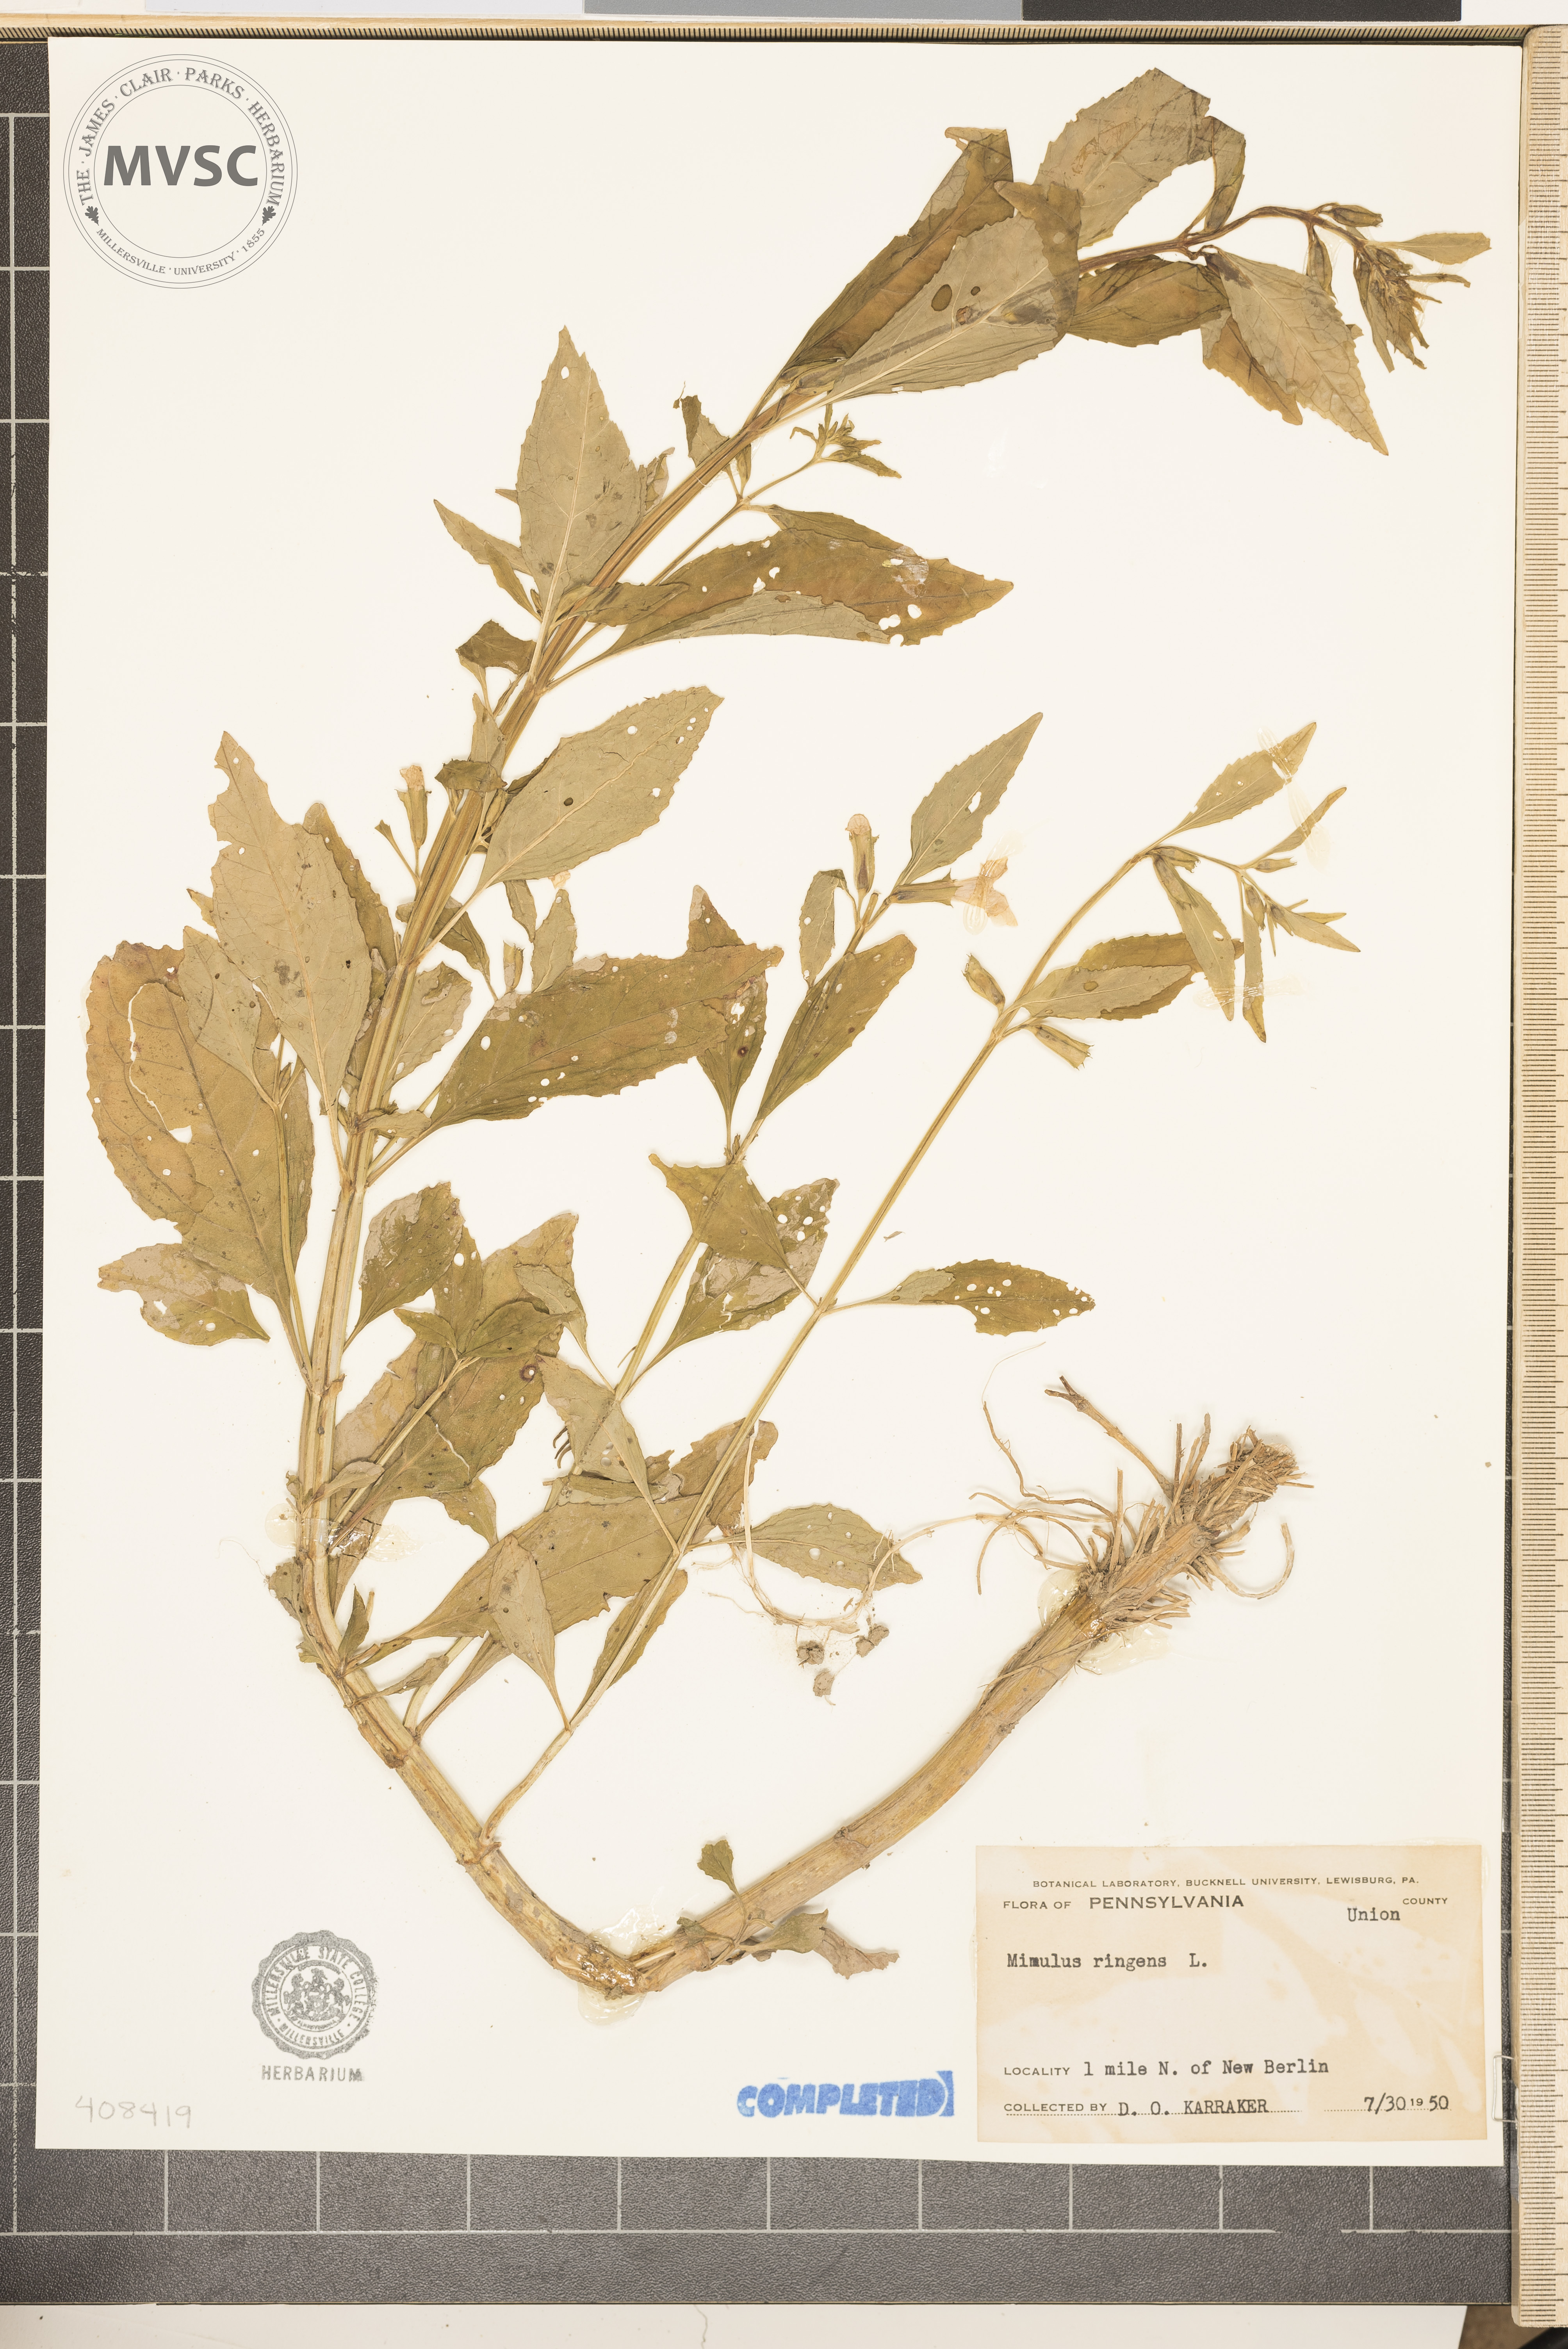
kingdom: Plantae
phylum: Tracheophyta
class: Magnoliopsida
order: Lamiales
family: Phrymaceae
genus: Mimulus
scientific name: Mimulus ringens
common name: Allegheny monkeyflower
